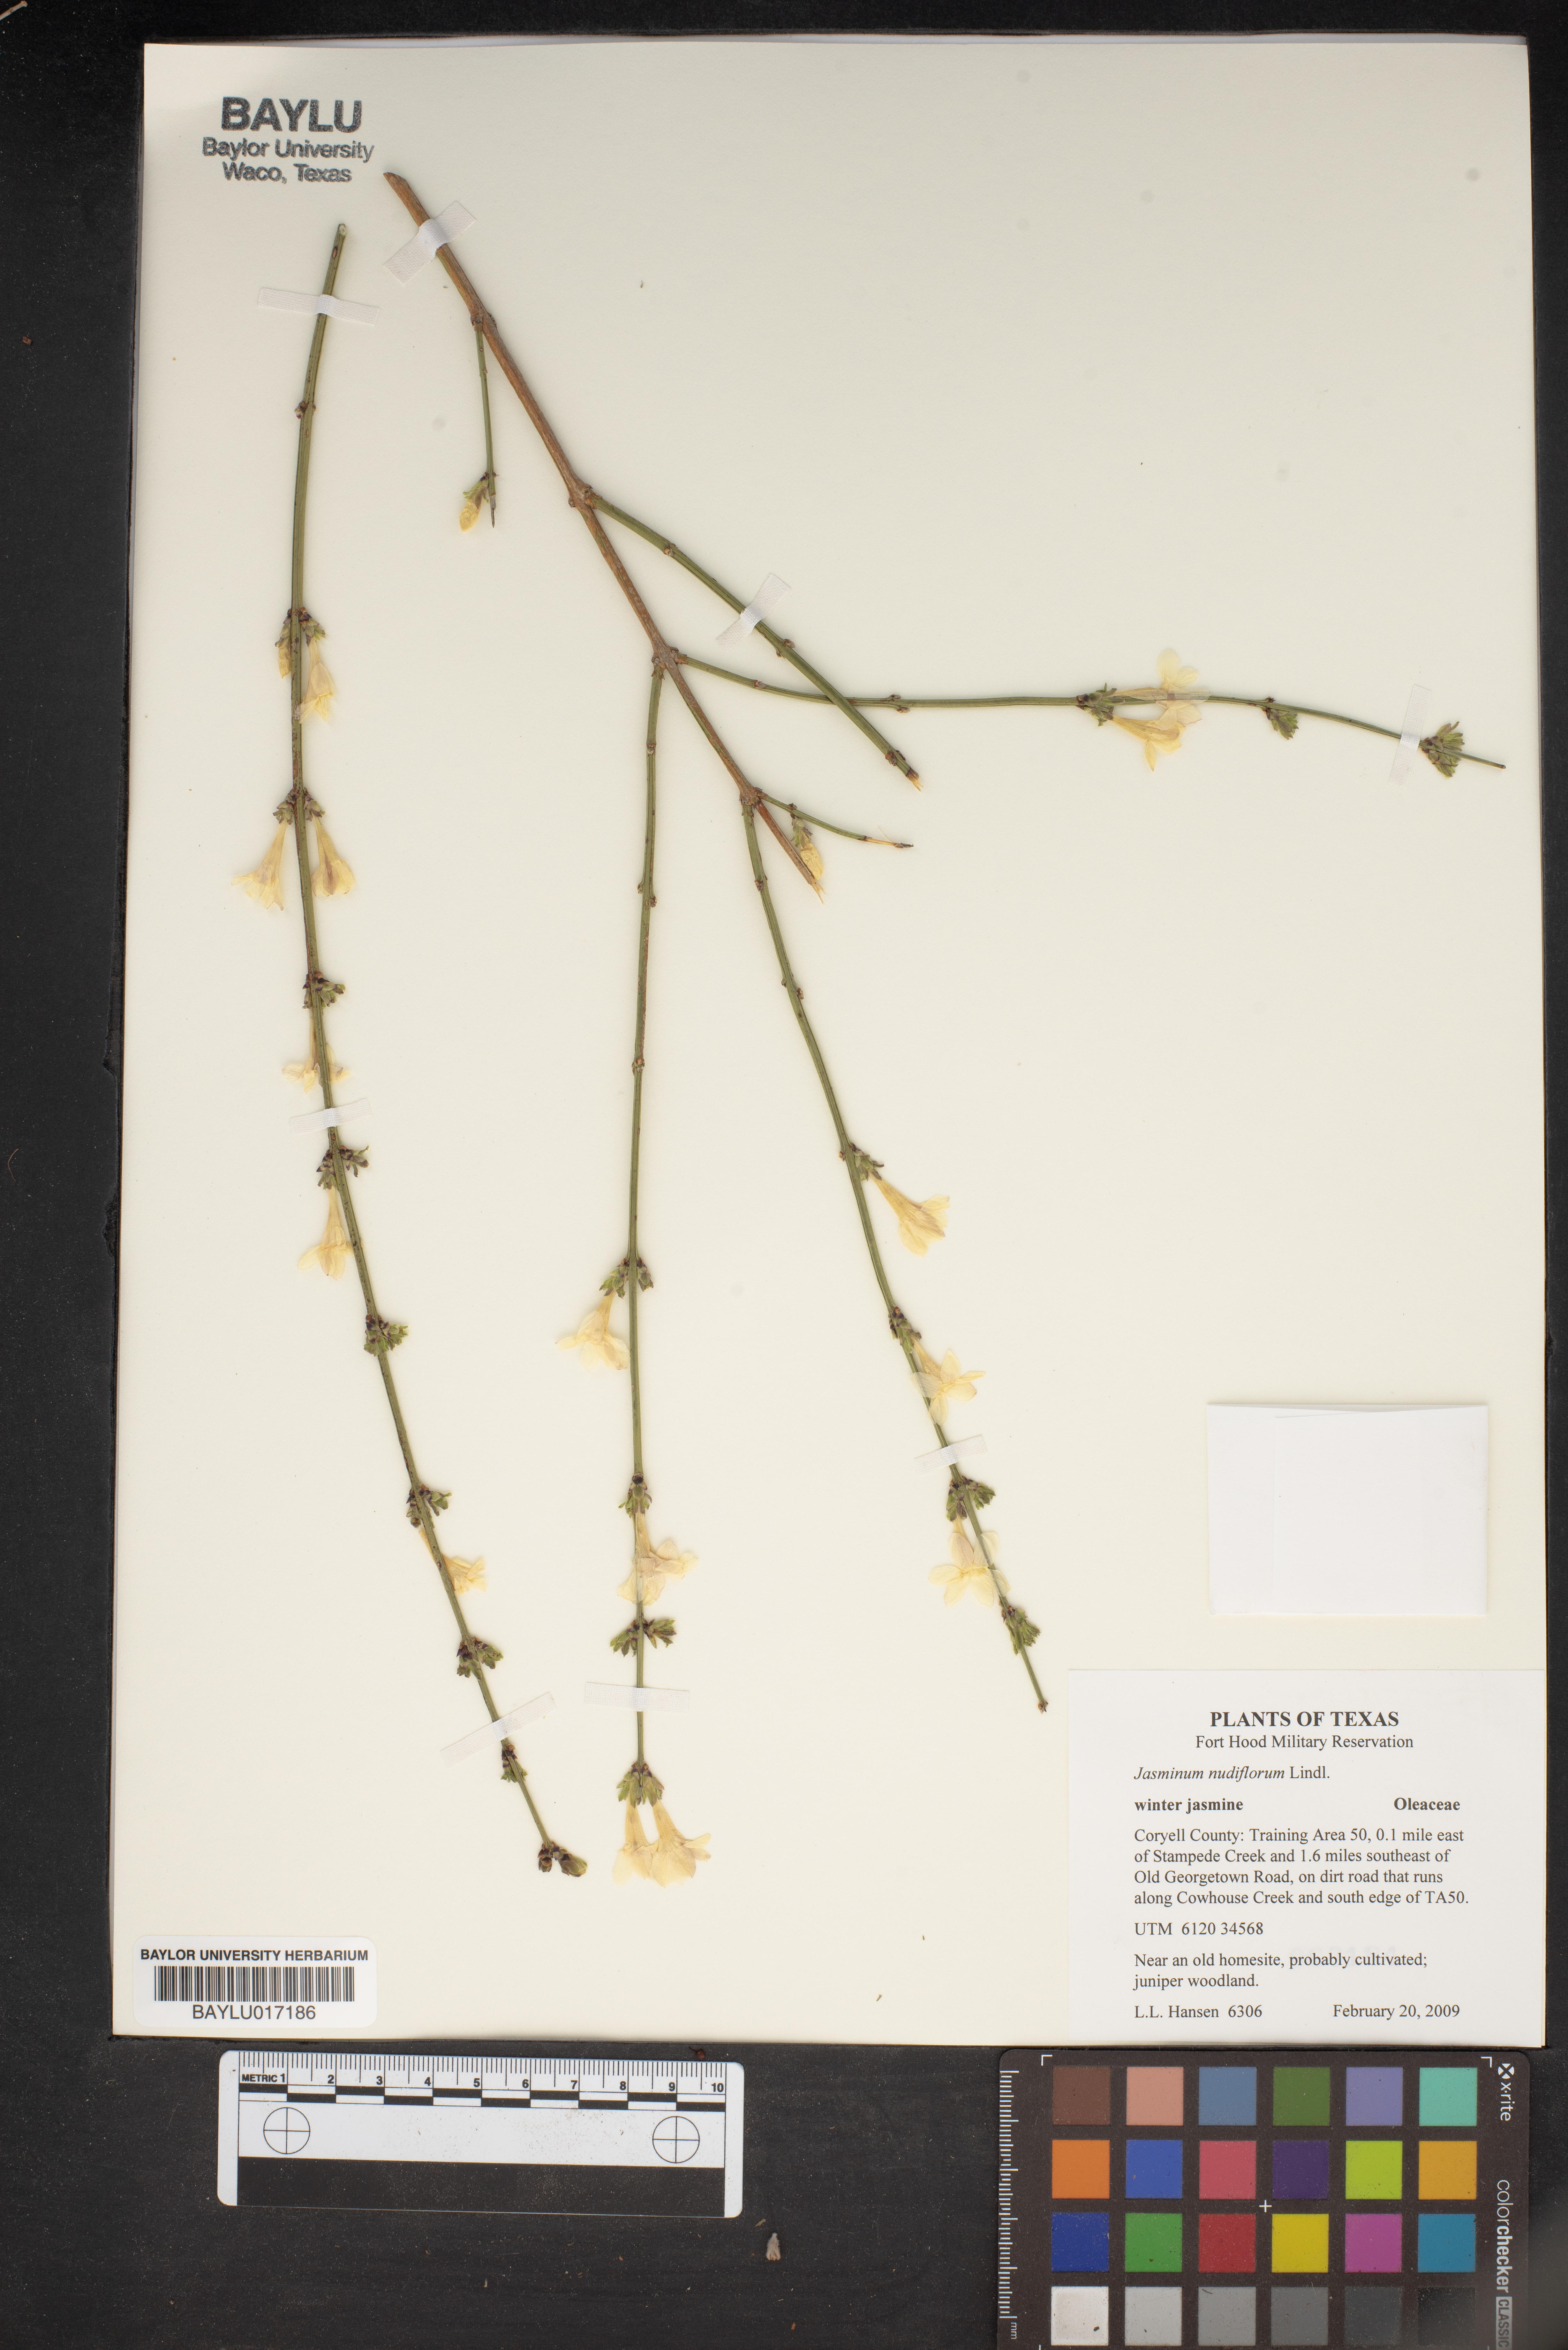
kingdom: Plantae
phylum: Tracheophyta
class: Magnoliopsida
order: Lamiales
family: Oleaceae
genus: Jasminum
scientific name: Jasminum nudiflorum
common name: Winter jasmine
